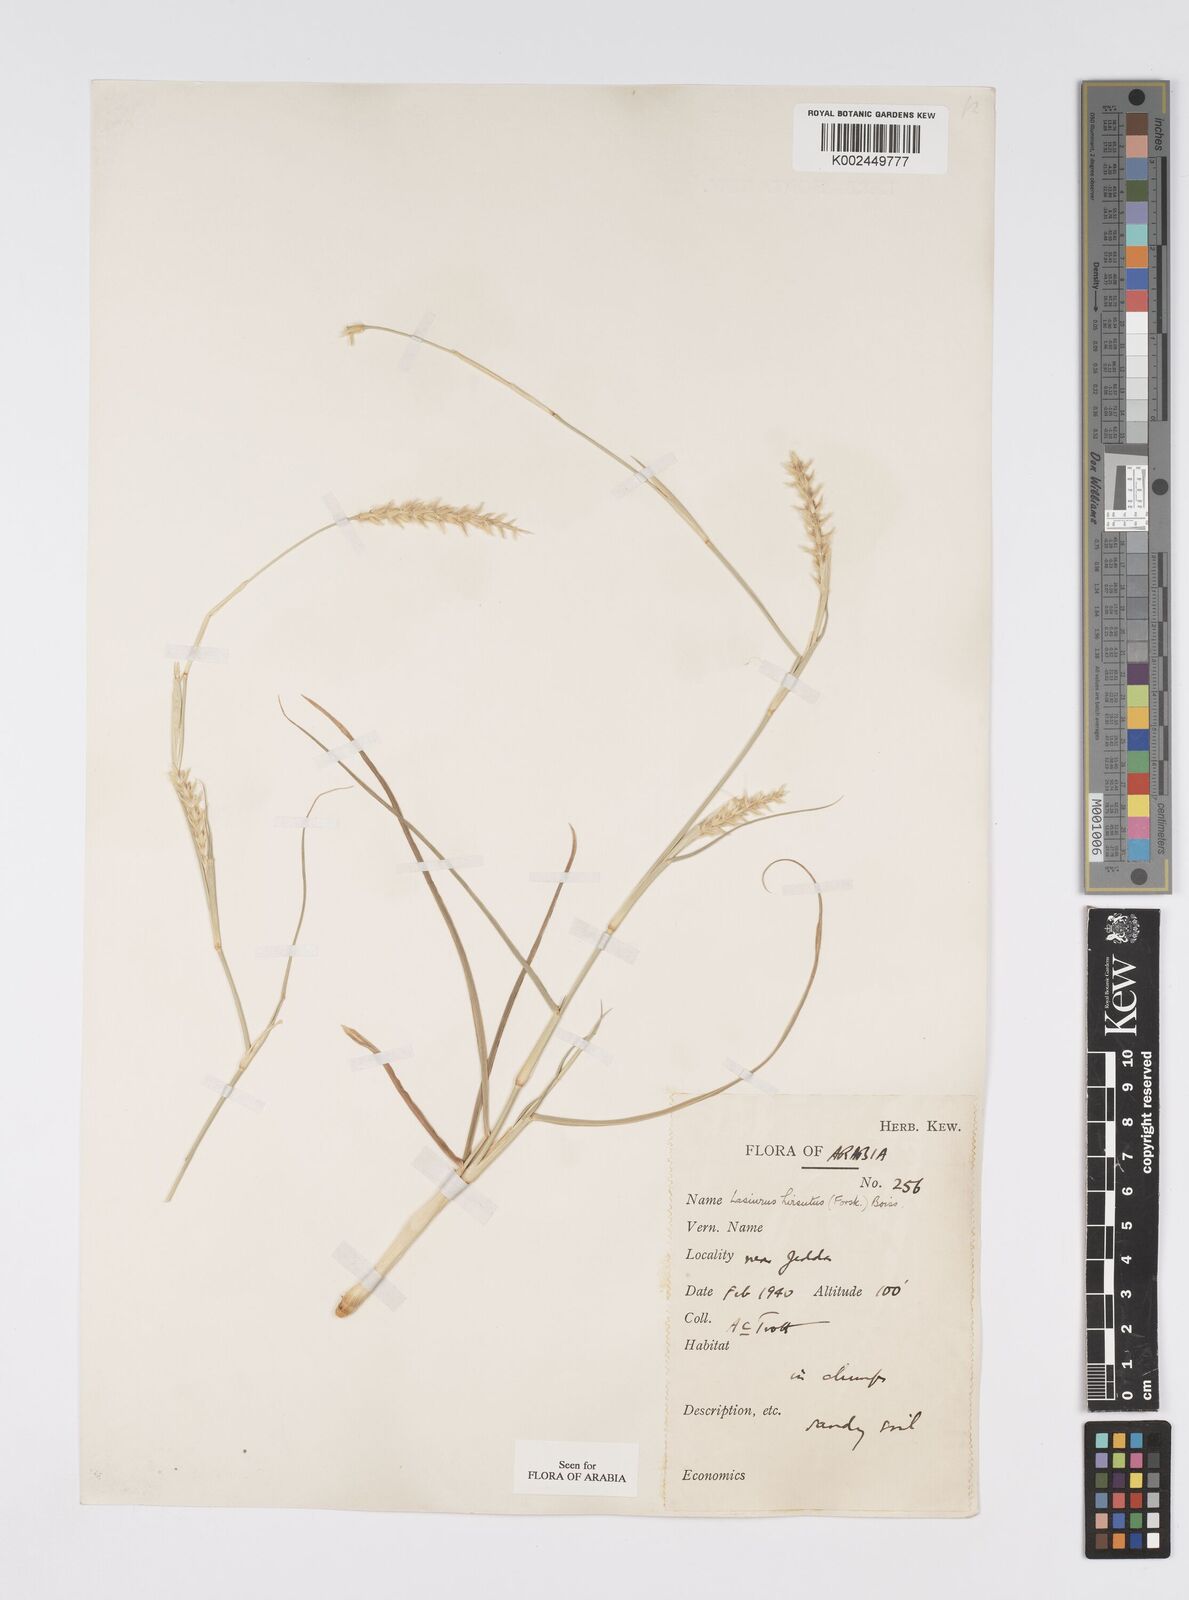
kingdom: Plantae
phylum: Tracheophyta
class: Liliopsida
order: Poales
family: Poaceae
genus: Lasiurus
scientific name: Lasiurus scindicus
